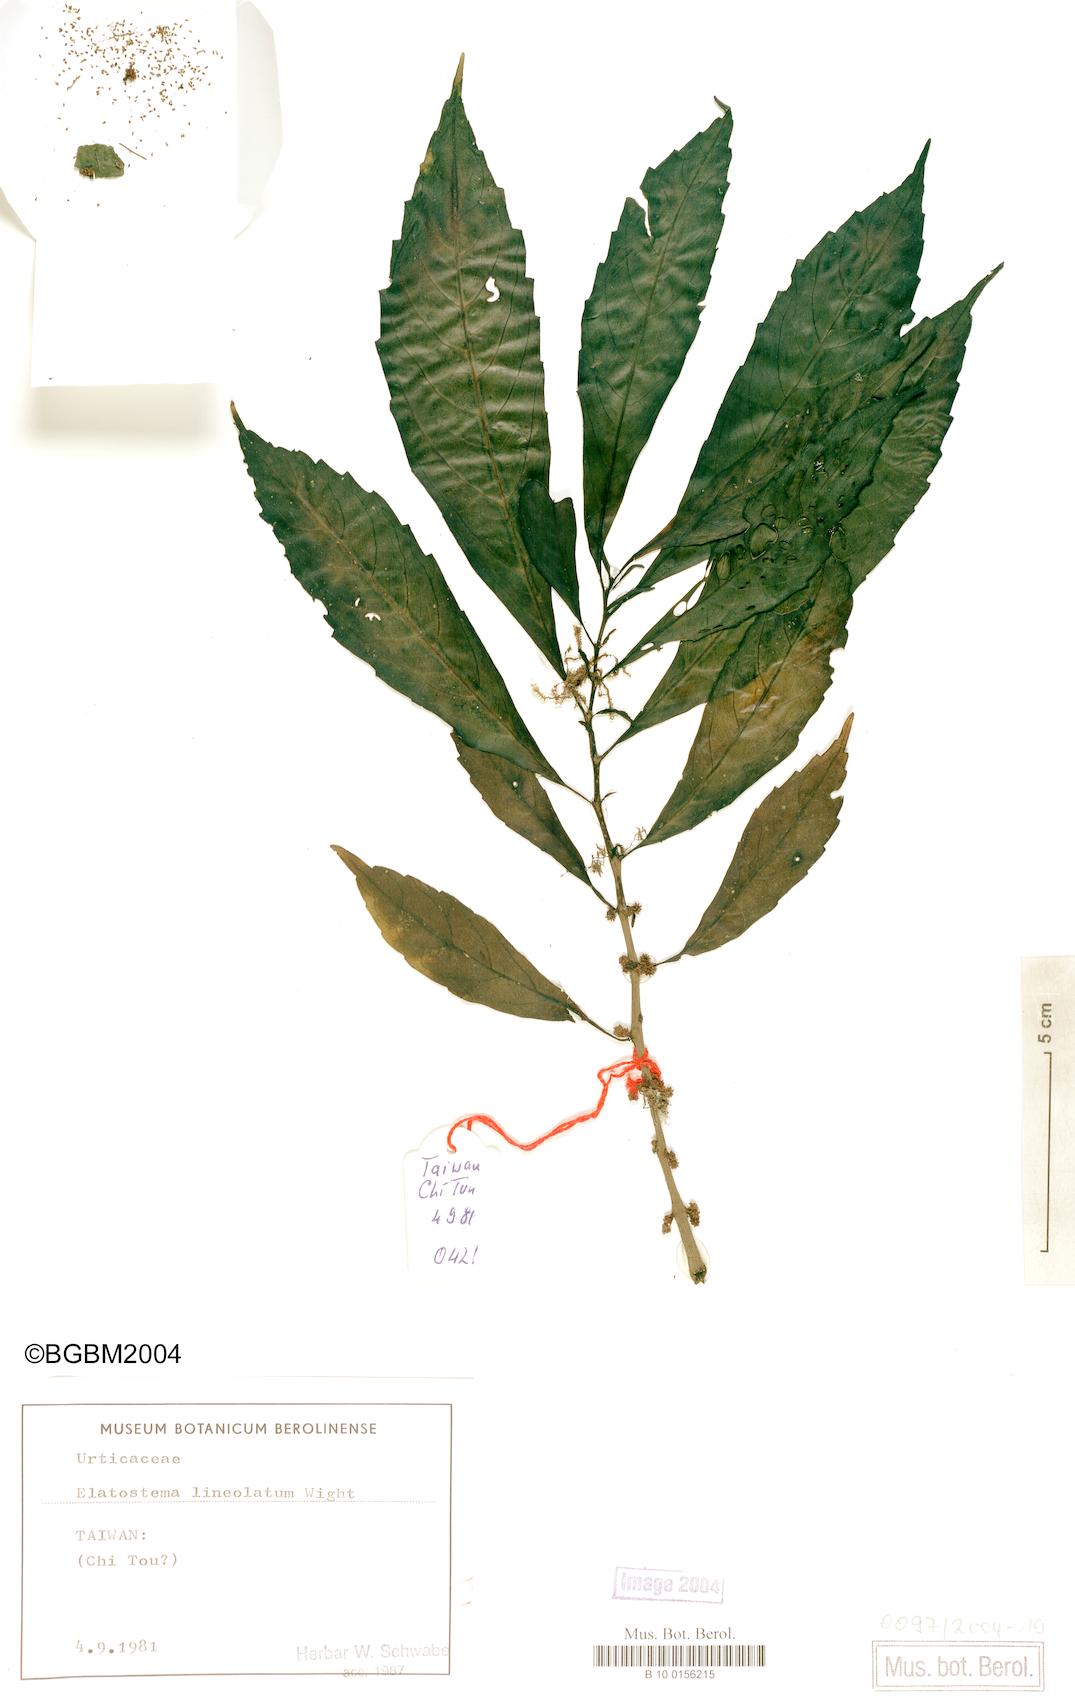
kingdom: Plantae
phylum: Tracheophyta
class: Magnoliopsida
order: Rosales
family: Urticaceae
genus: Elatostema
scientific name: Elatostema lineolatum
